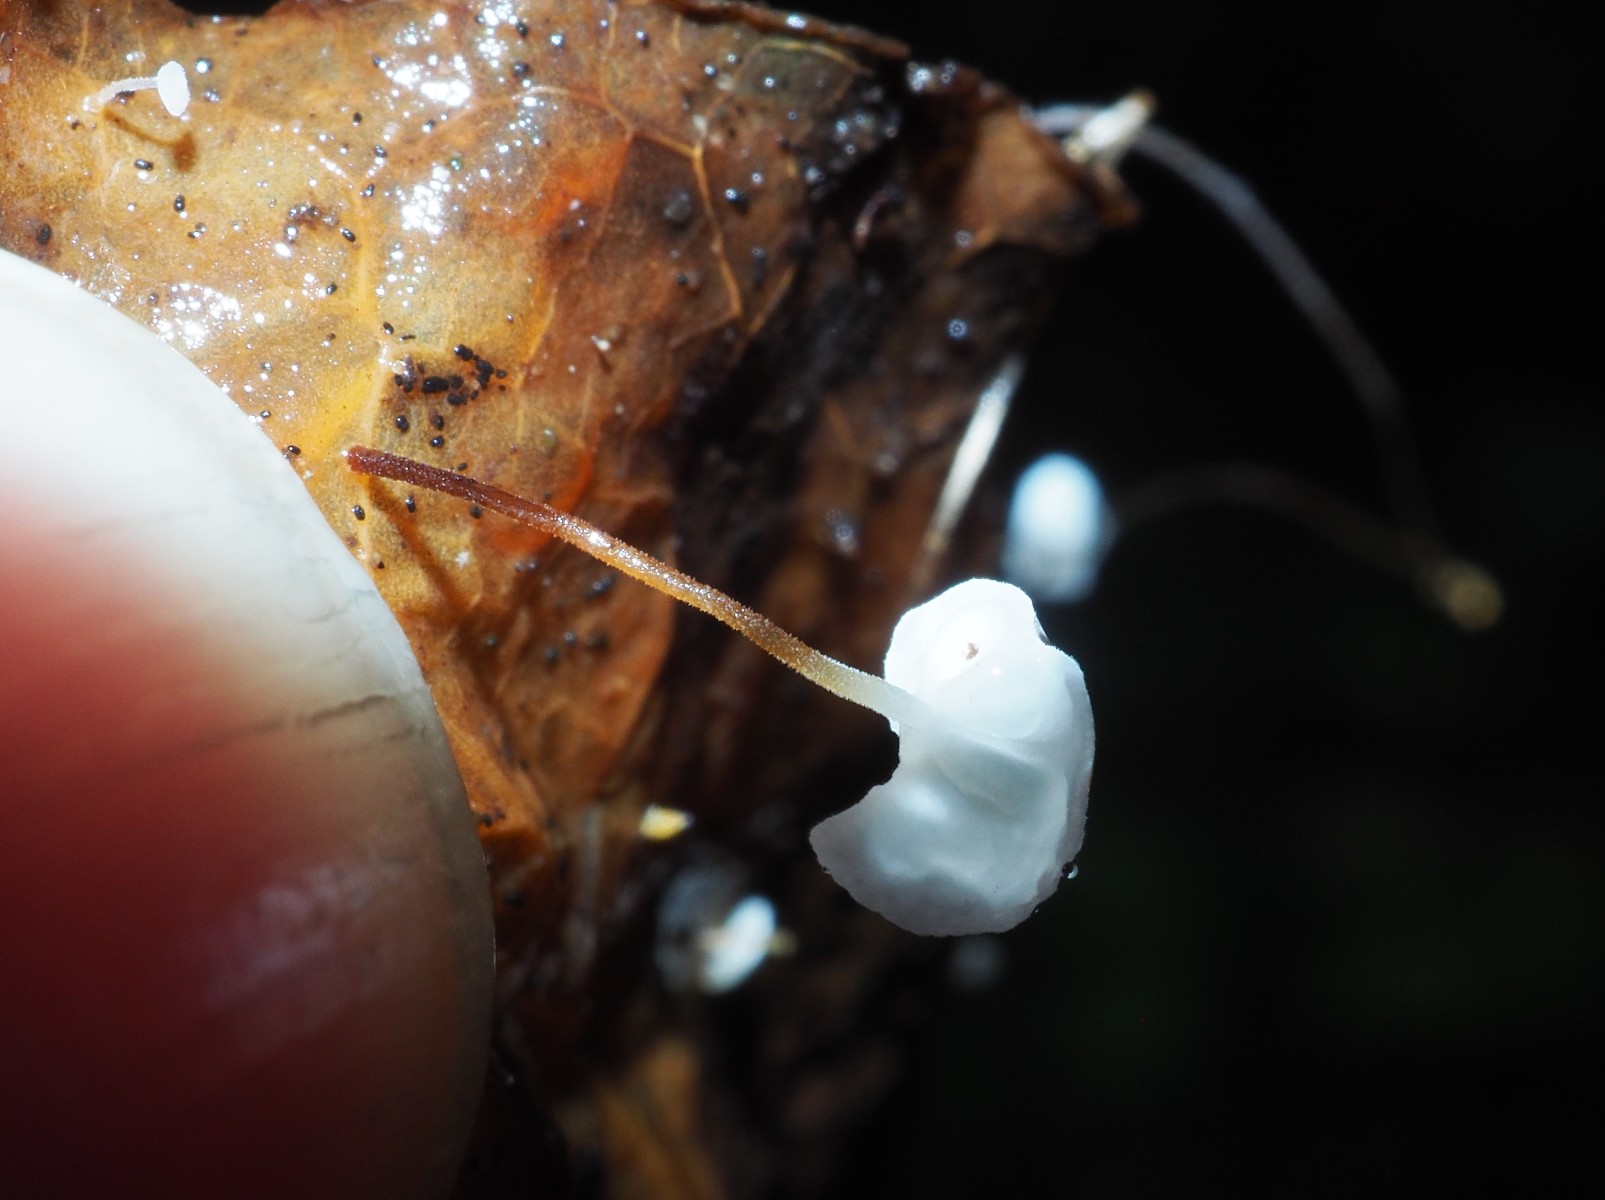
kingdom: Fungi
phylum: Basidiomycota
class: Agaricomycetes
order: Agaricales
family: Marasmiaceae
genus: Marasmius
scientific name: Marasmius epiphylloides
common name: vedbend-bruskhat
